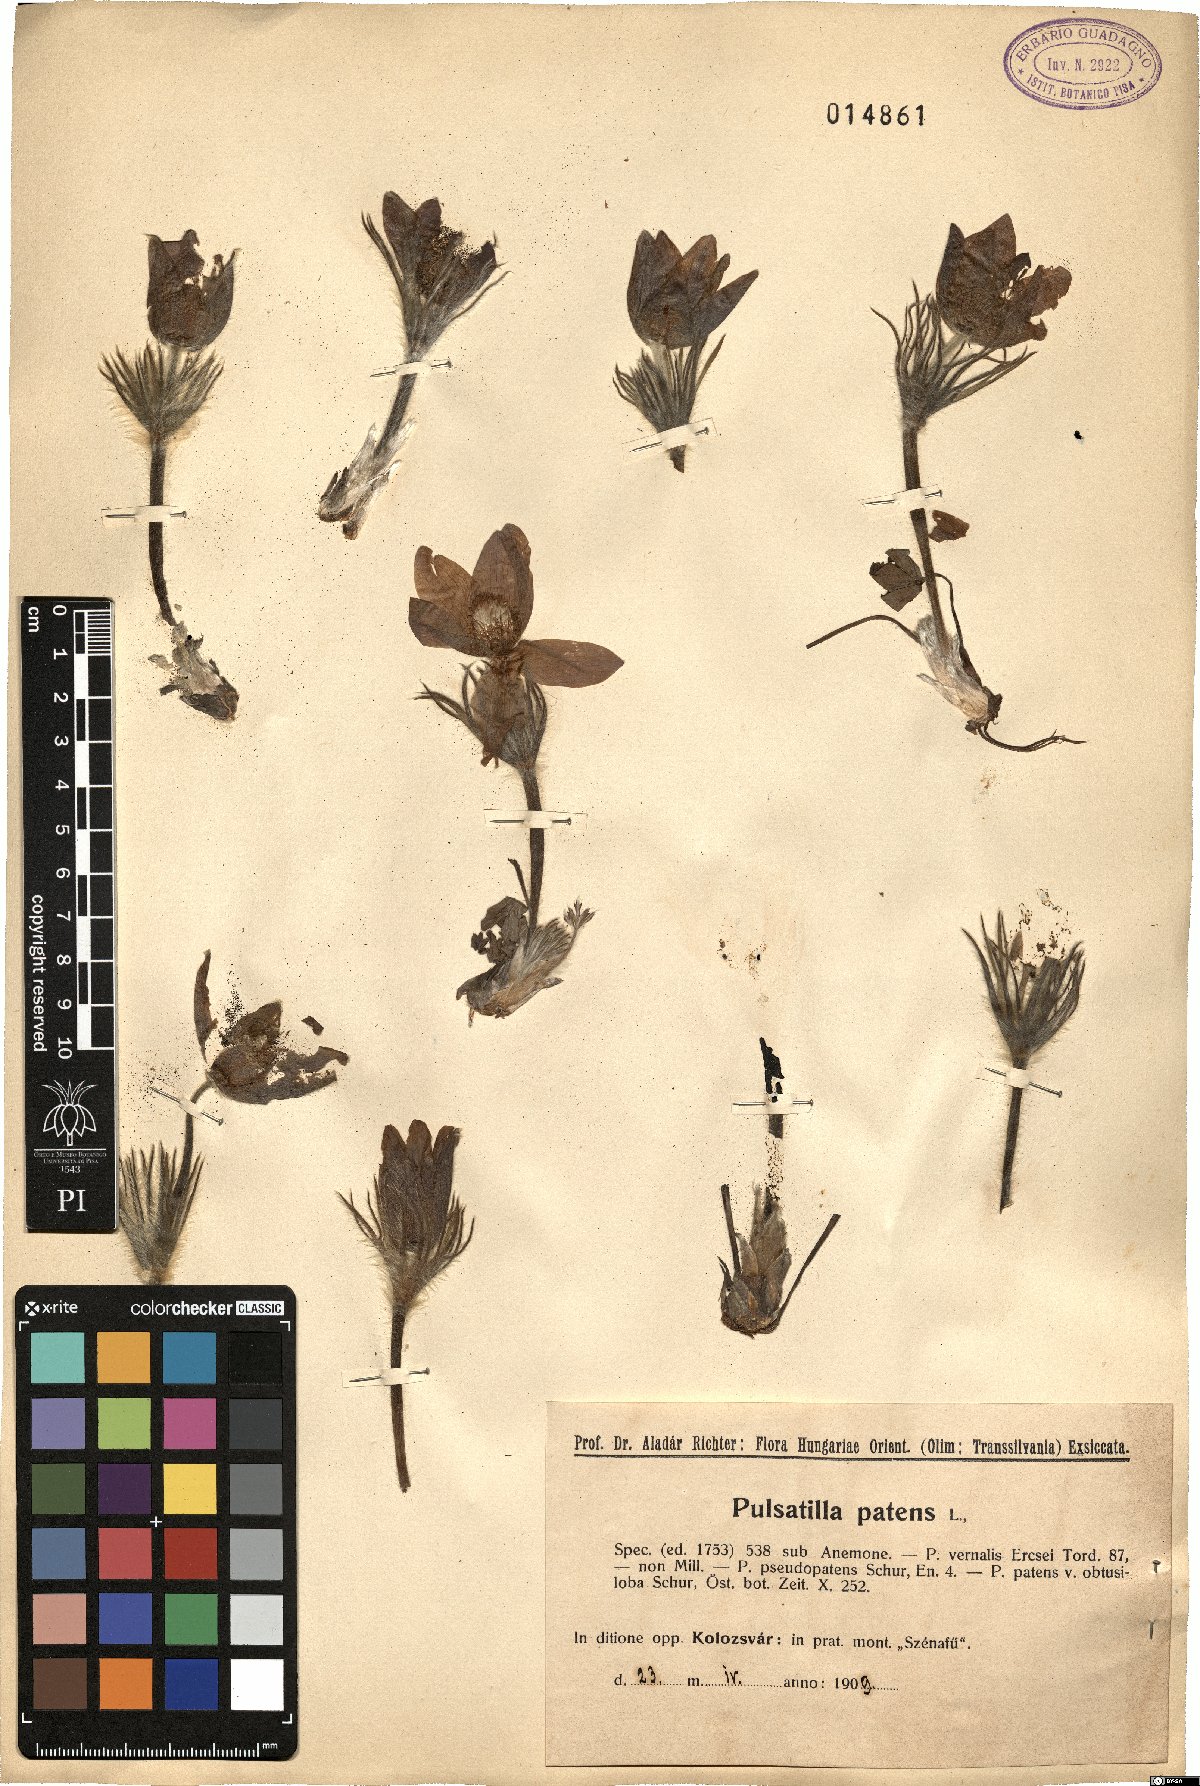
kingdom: Plantae
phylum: Tracheophyta
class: Magnoliopsida
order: Ranunculales
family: Ranunculaceae
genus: Pulsatilla
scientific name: Pulsatilla patens
